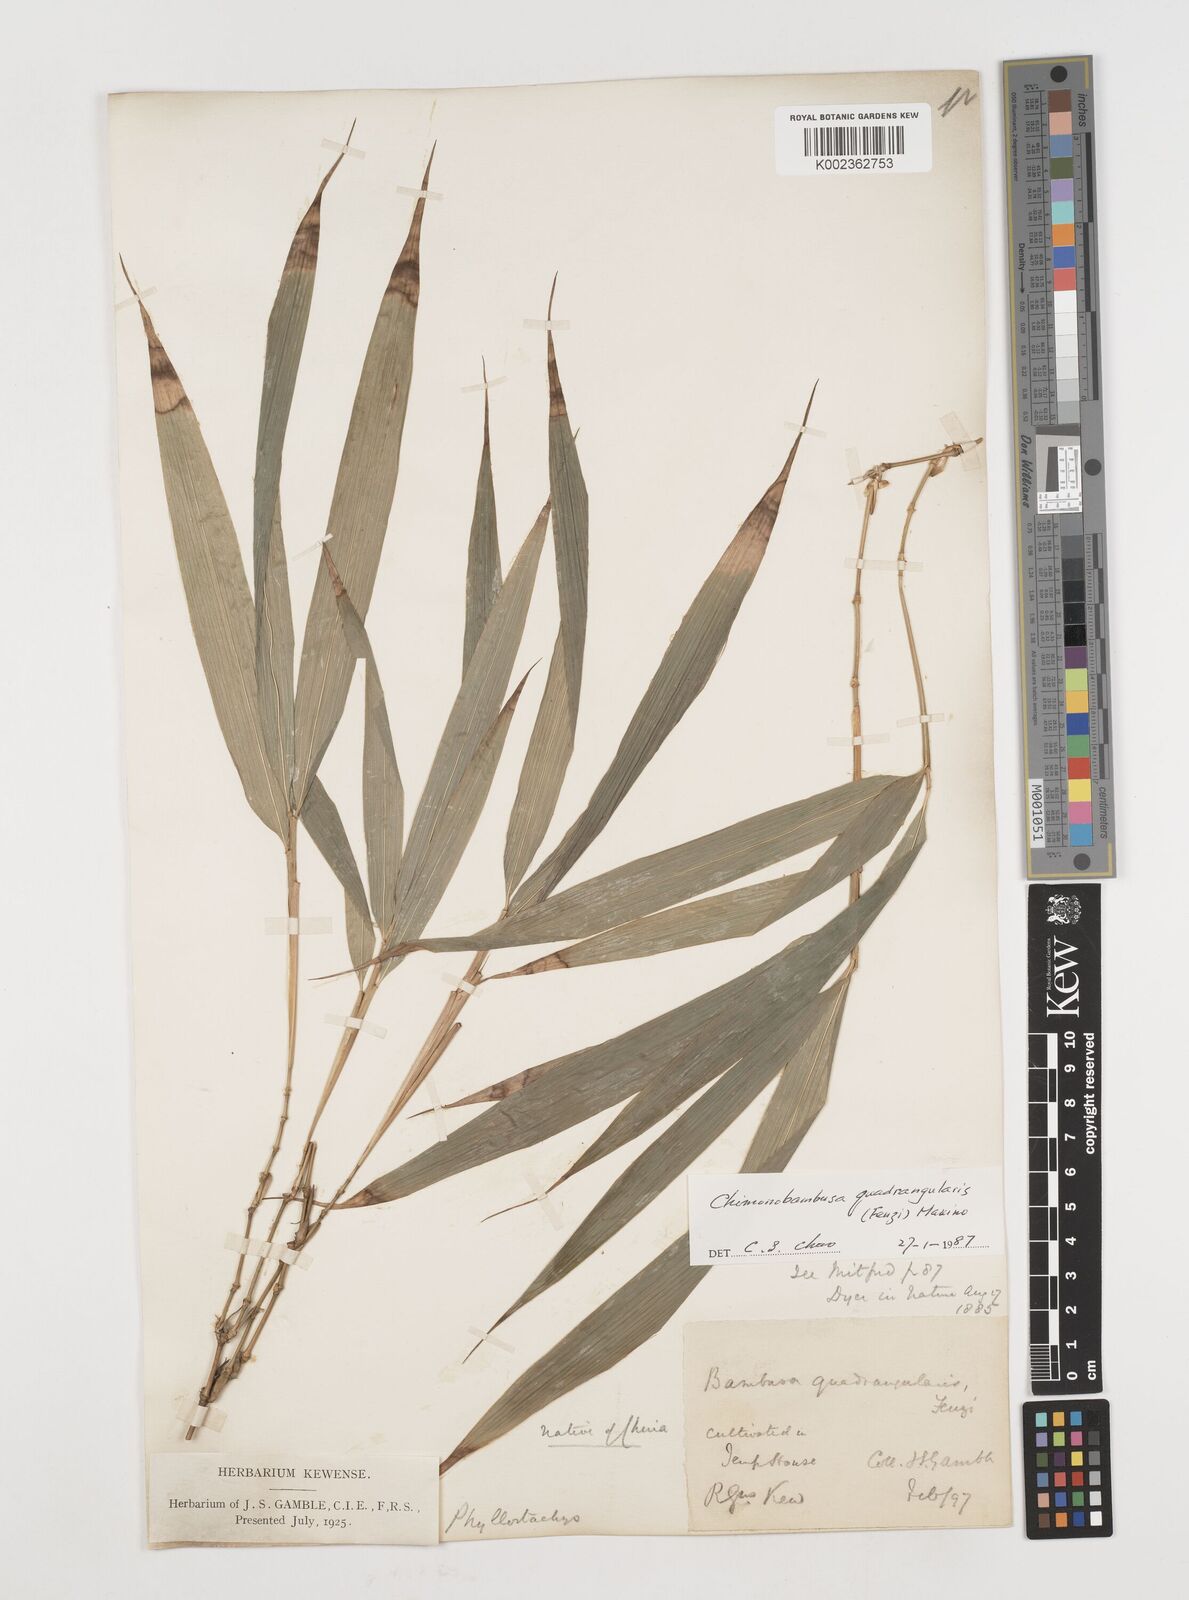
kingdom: Plantae
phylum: Tracheophyta
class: Liliopsida
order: Poales
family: Poaceae
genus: Chimonobambusa
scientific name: Chimonobambusa quadrangularis
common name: Square-stemmed bamboo
